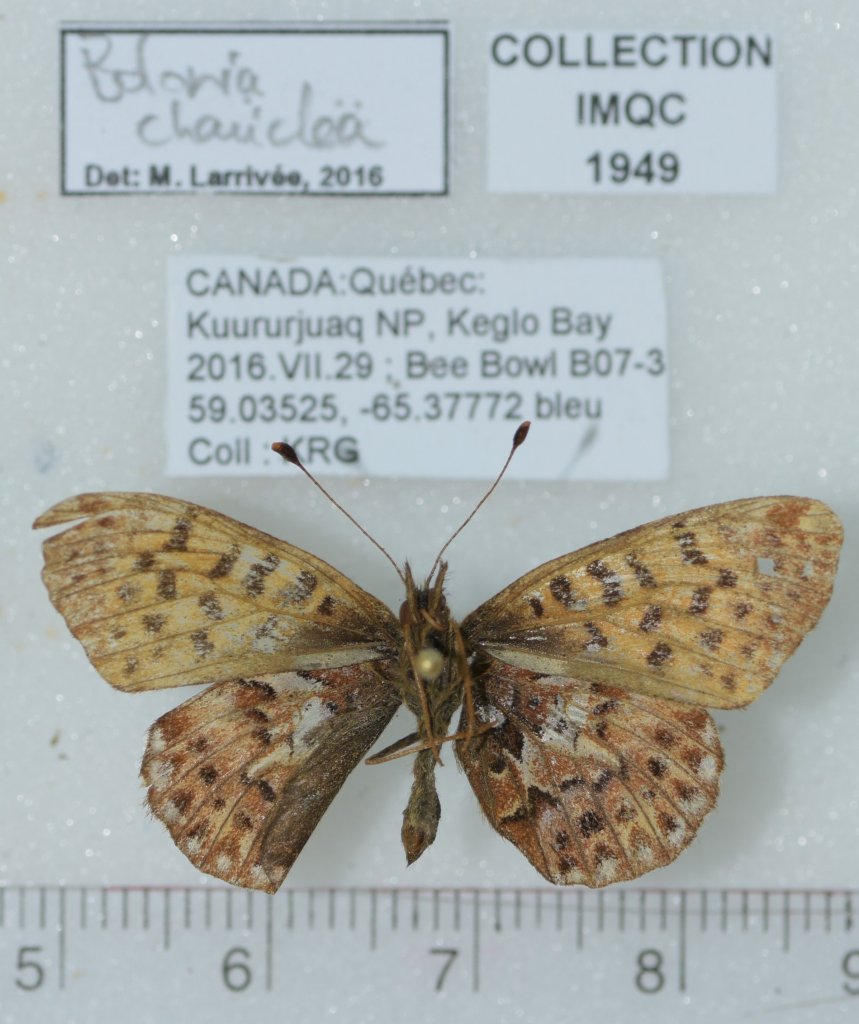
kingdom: Animalia
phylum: Arthropoda
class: Insecta
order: Lepidoptera
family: Nymphalidae
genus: Boloria
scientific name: Boloria chariclea
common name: Arctic Fritillary
